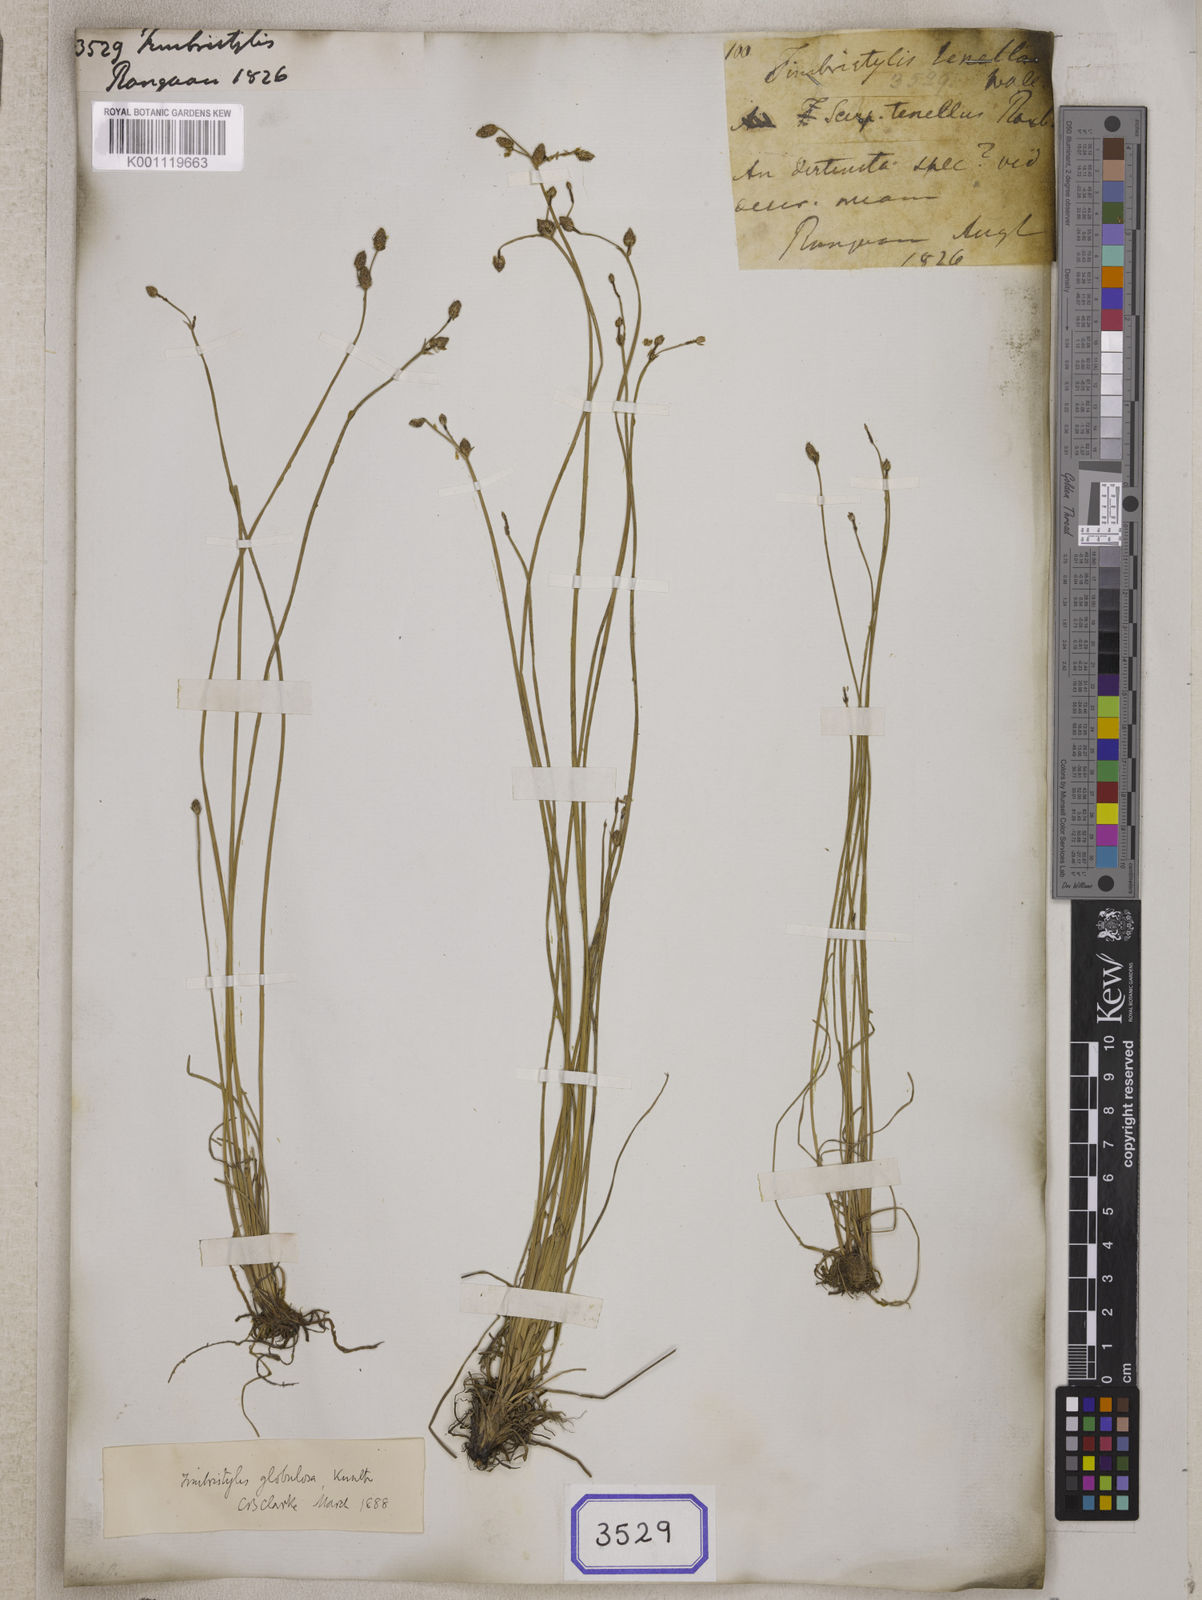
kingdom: Plantae
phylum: Tracheophyta
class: Liliopsida
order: Poales
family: Cyperaceae
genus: Fimbristylis
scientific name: Fimbristylis
